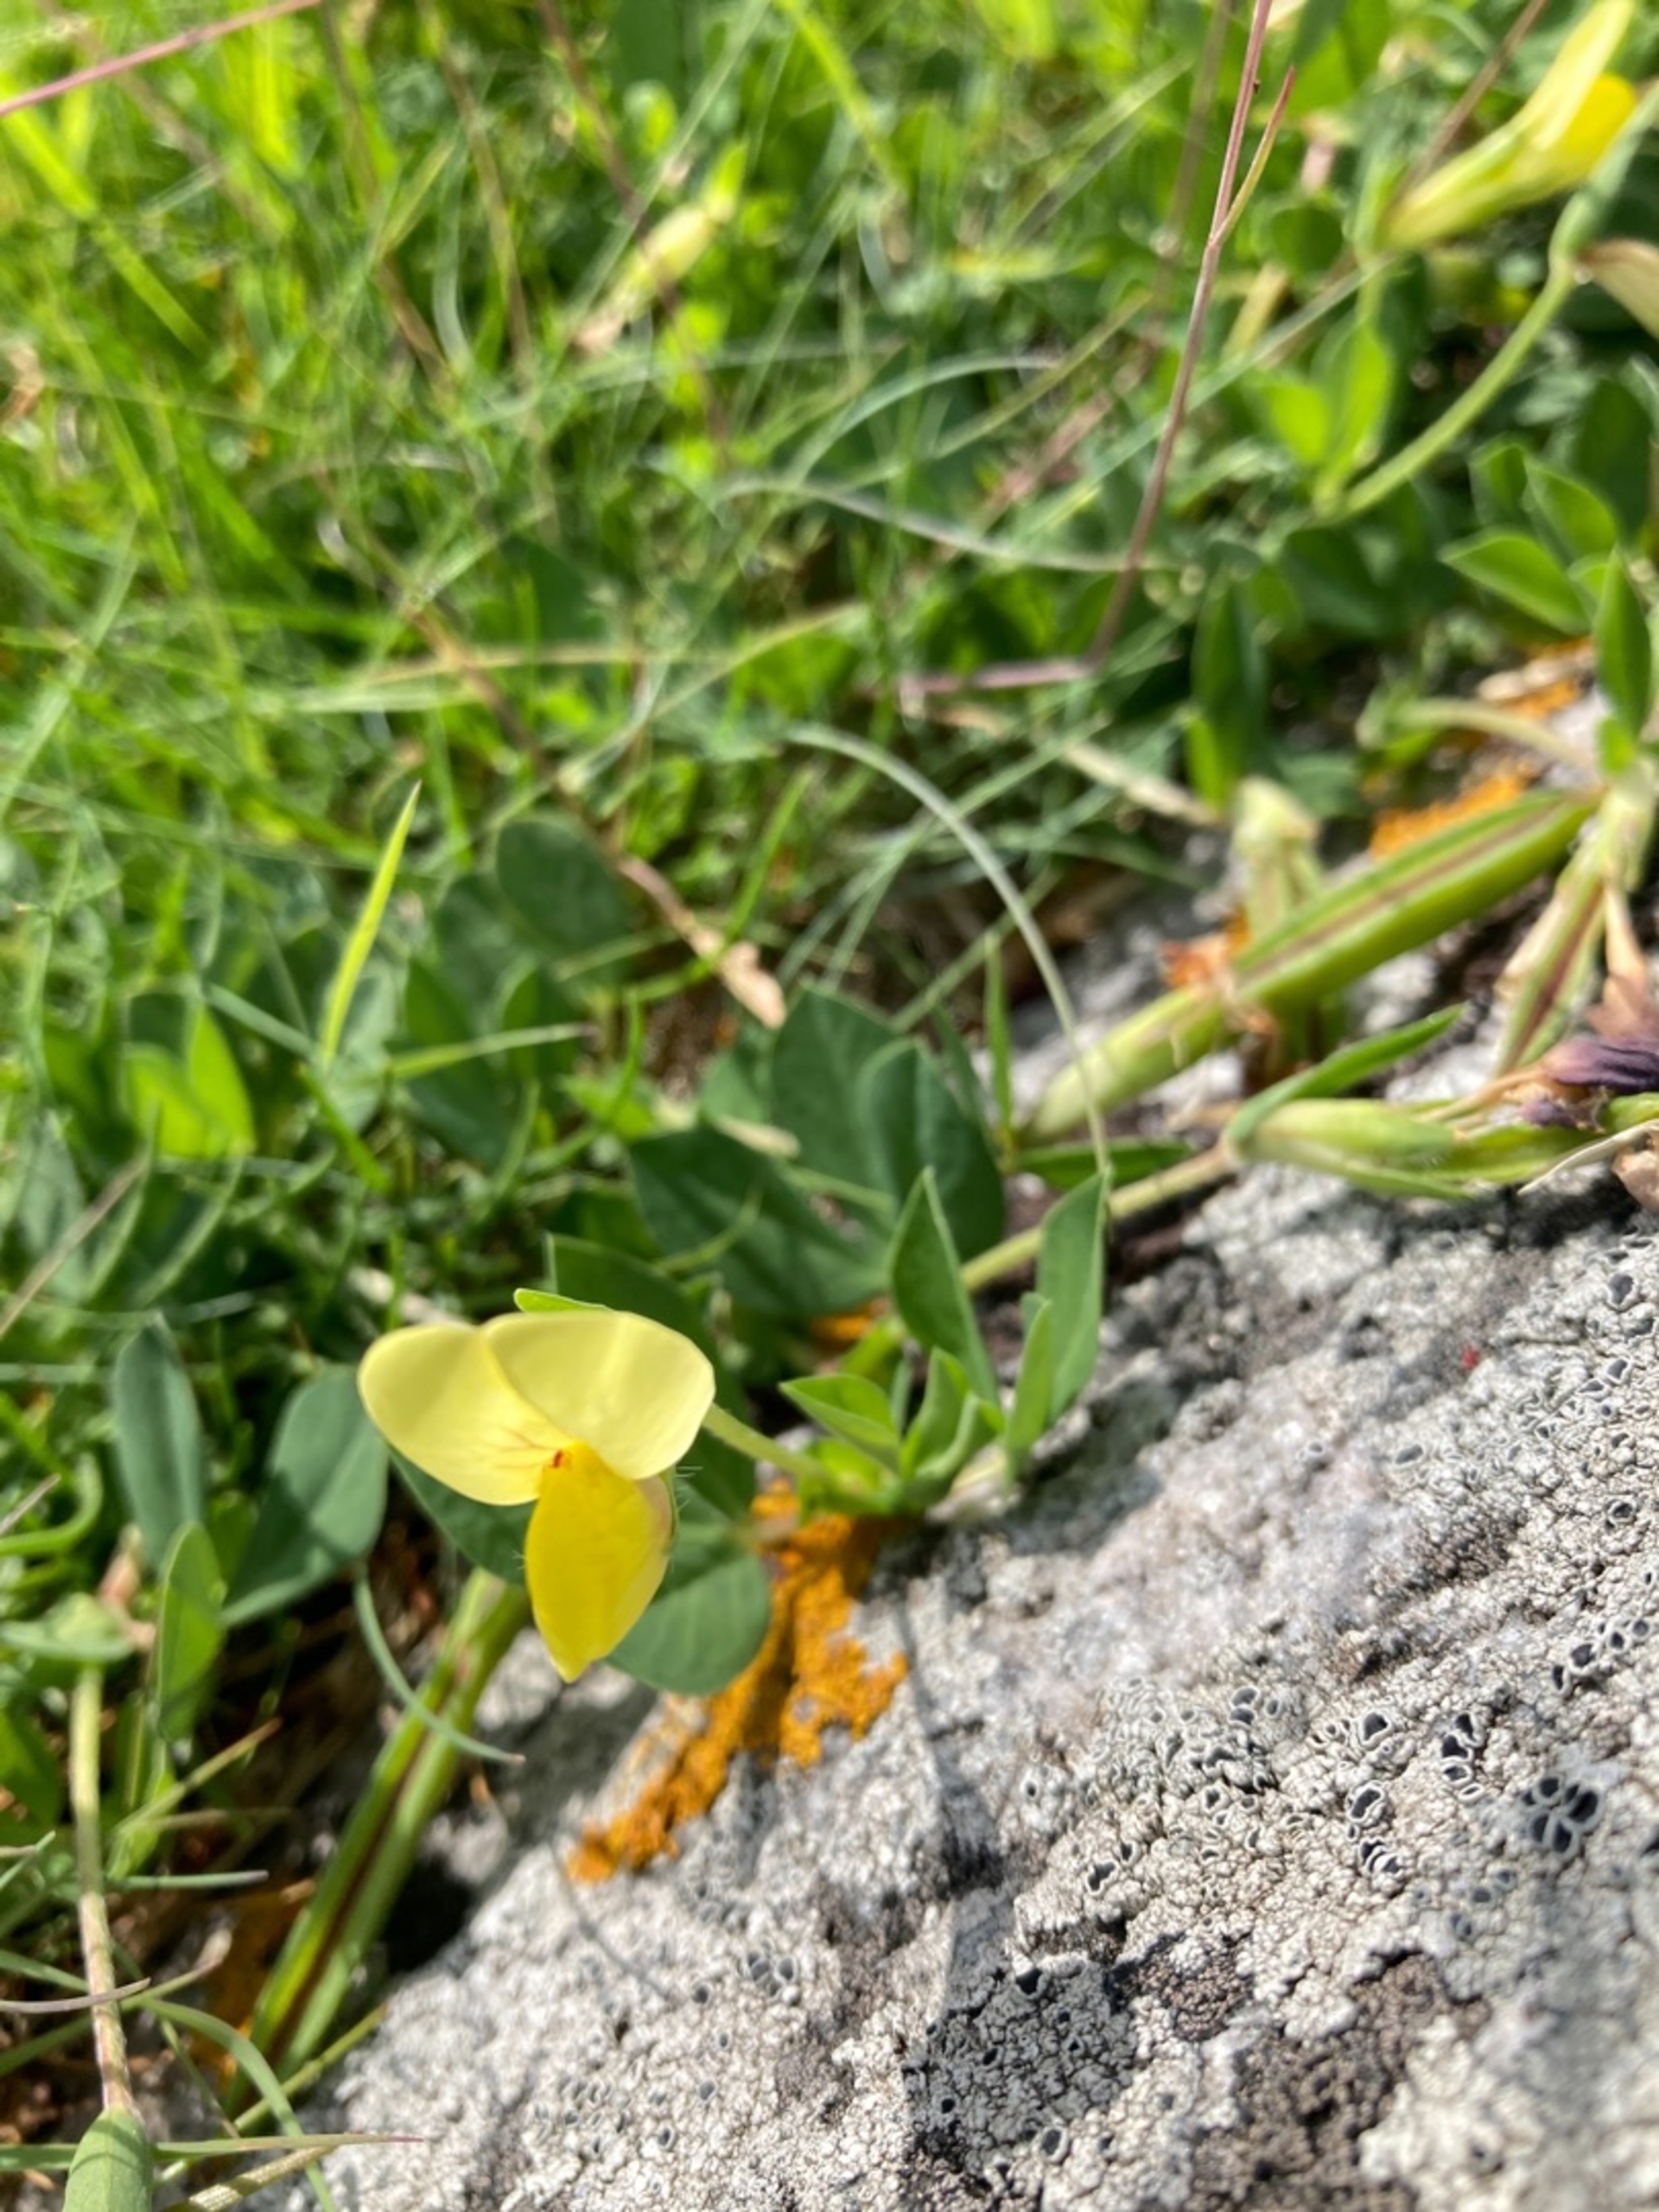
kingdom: Plantae
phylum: Tracheophyta
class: Magnoliopsida
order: Fabales
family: Fabaceae
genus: Lotus
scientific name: Lotus maritimus
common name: Kantbælg
